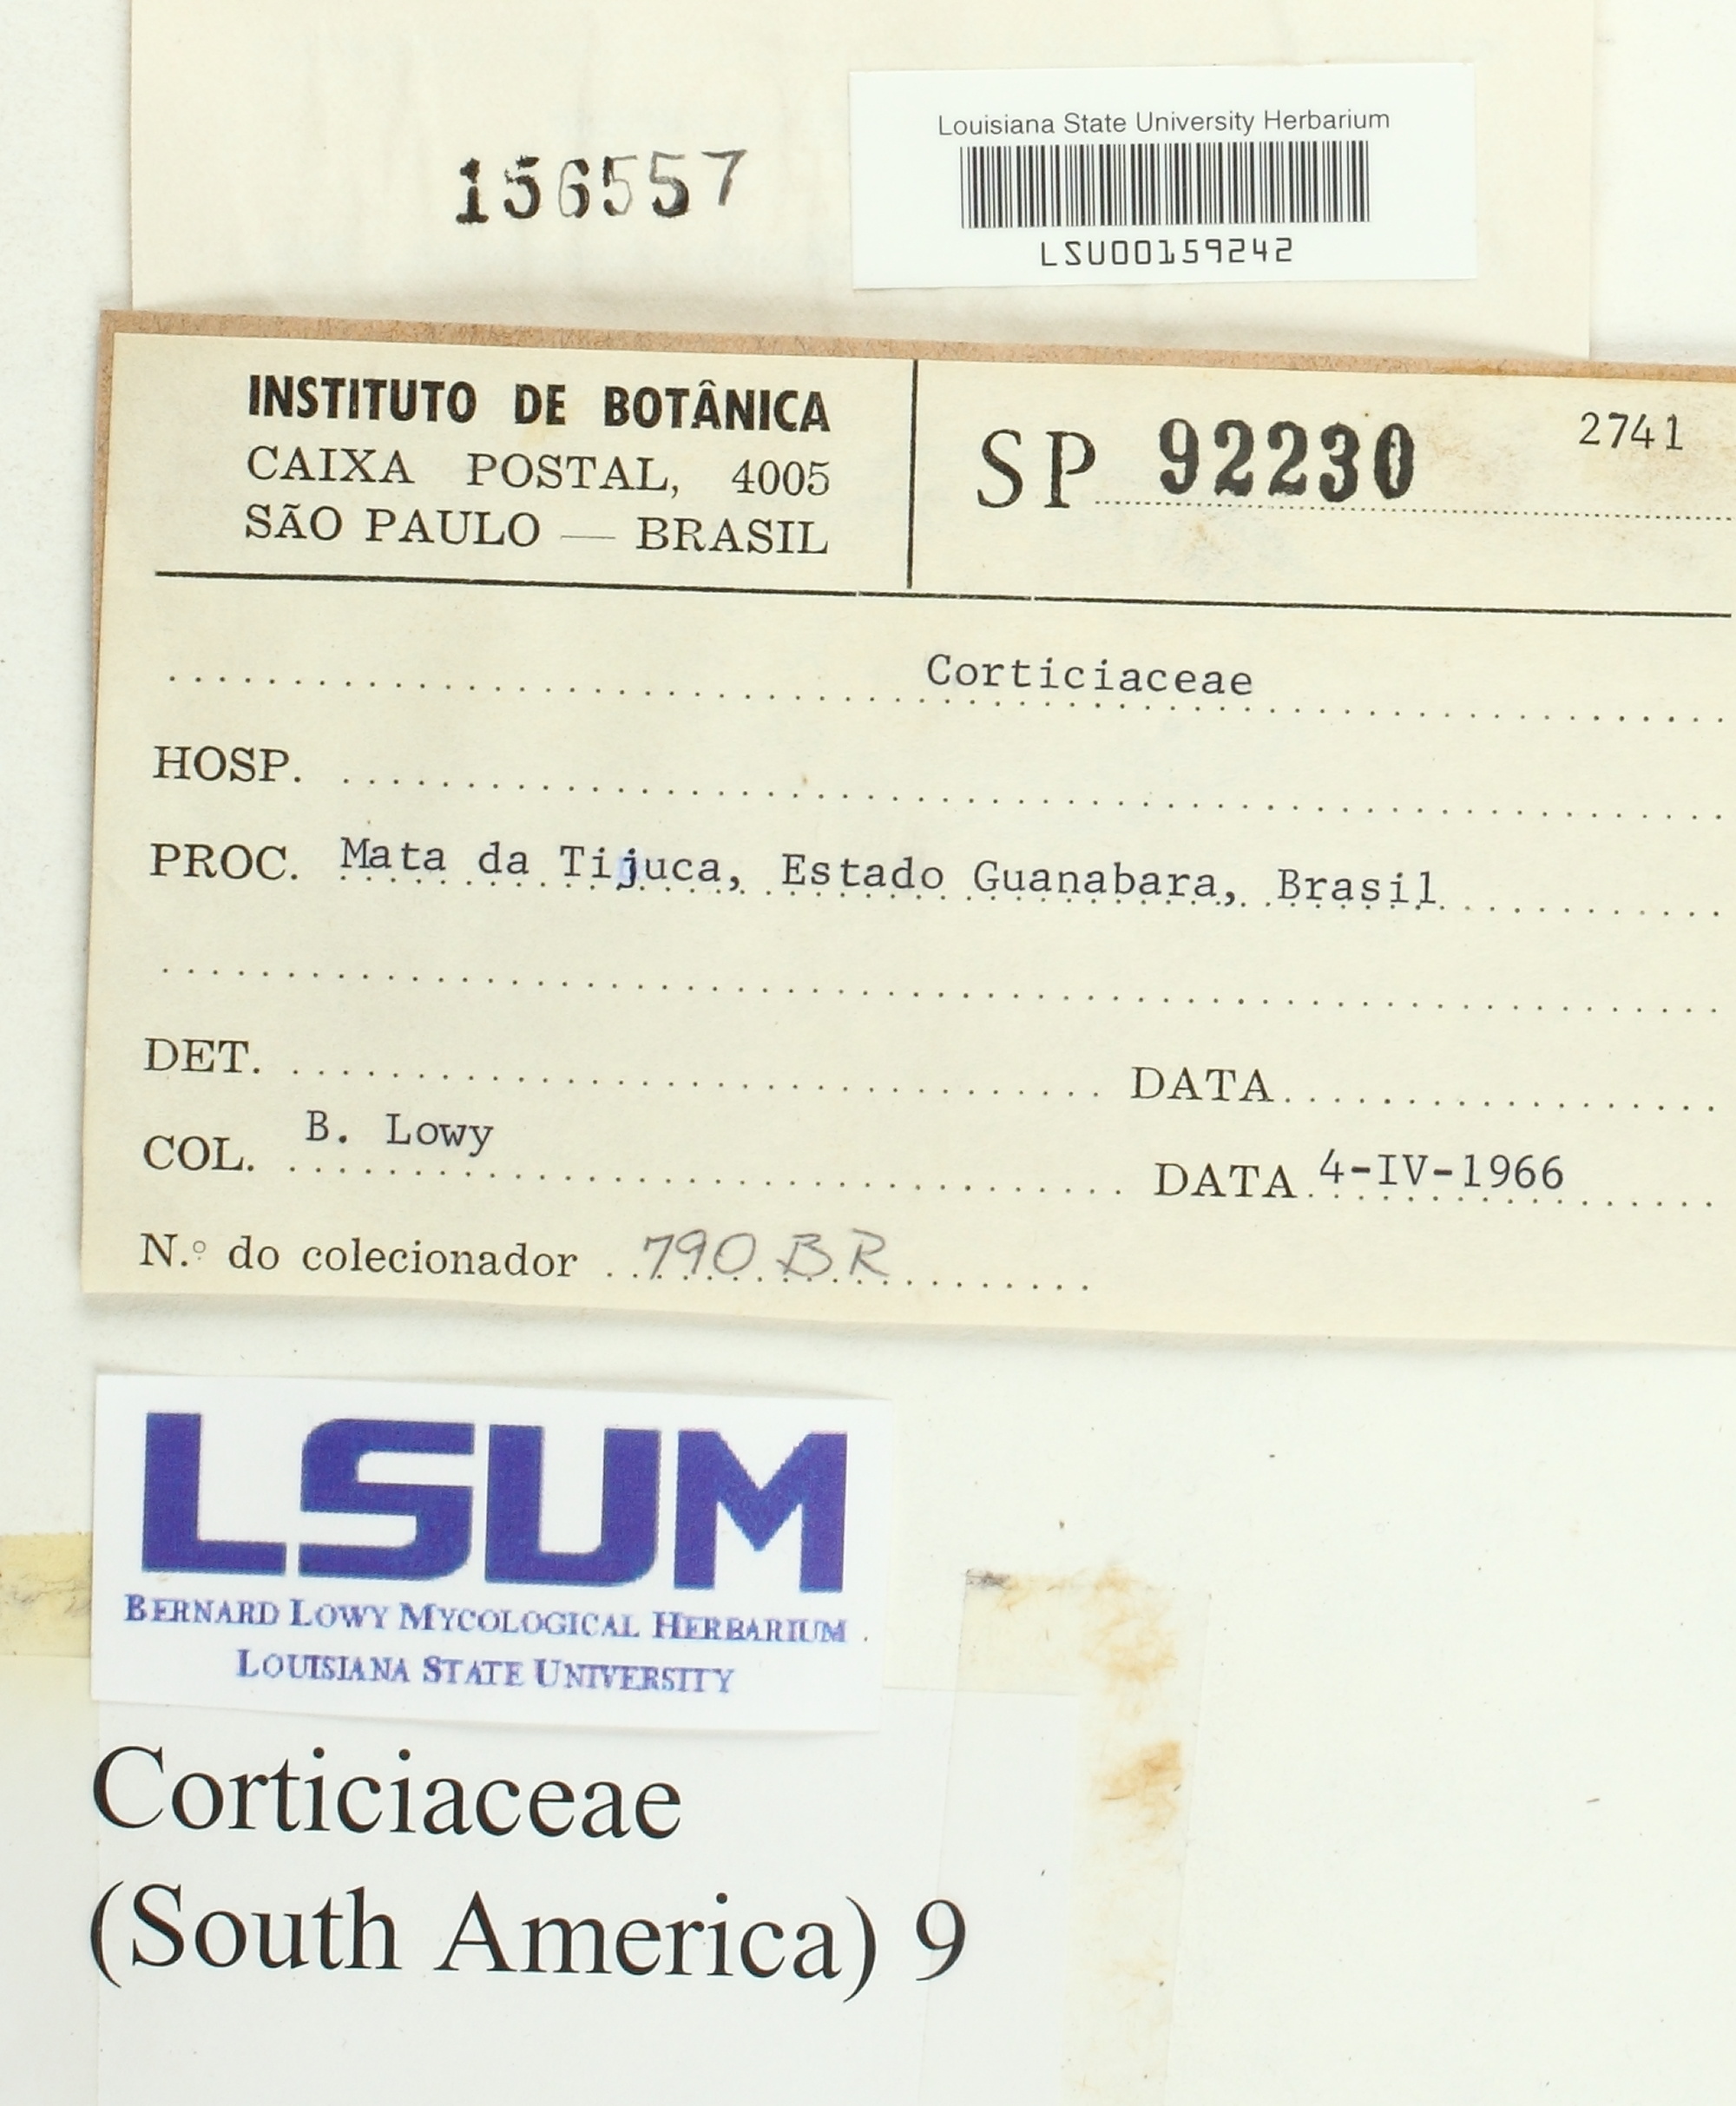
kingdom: Fungi
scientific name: Fungi
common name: Fungi
